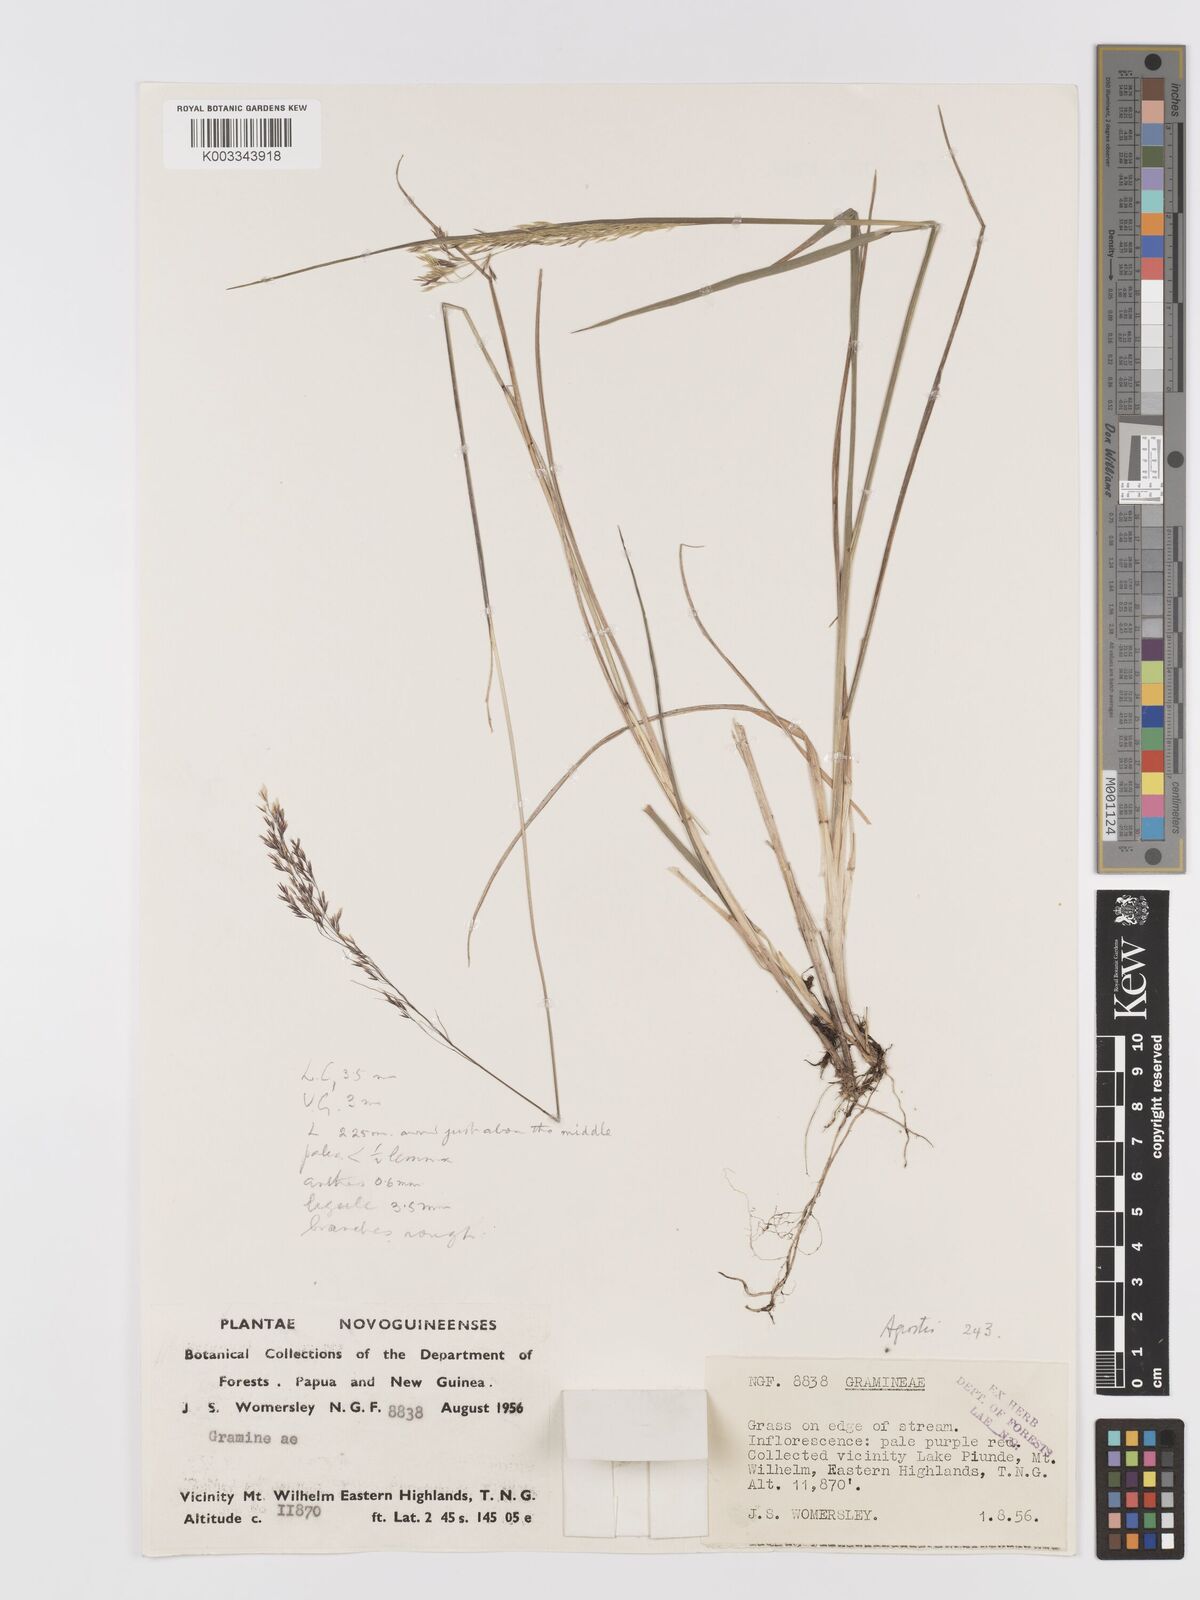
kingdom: Plantae
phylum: Tracheophyta
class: Liliopsida
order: Poales
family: Poaceae
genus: Agrostis
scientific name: Agrostis infirma
